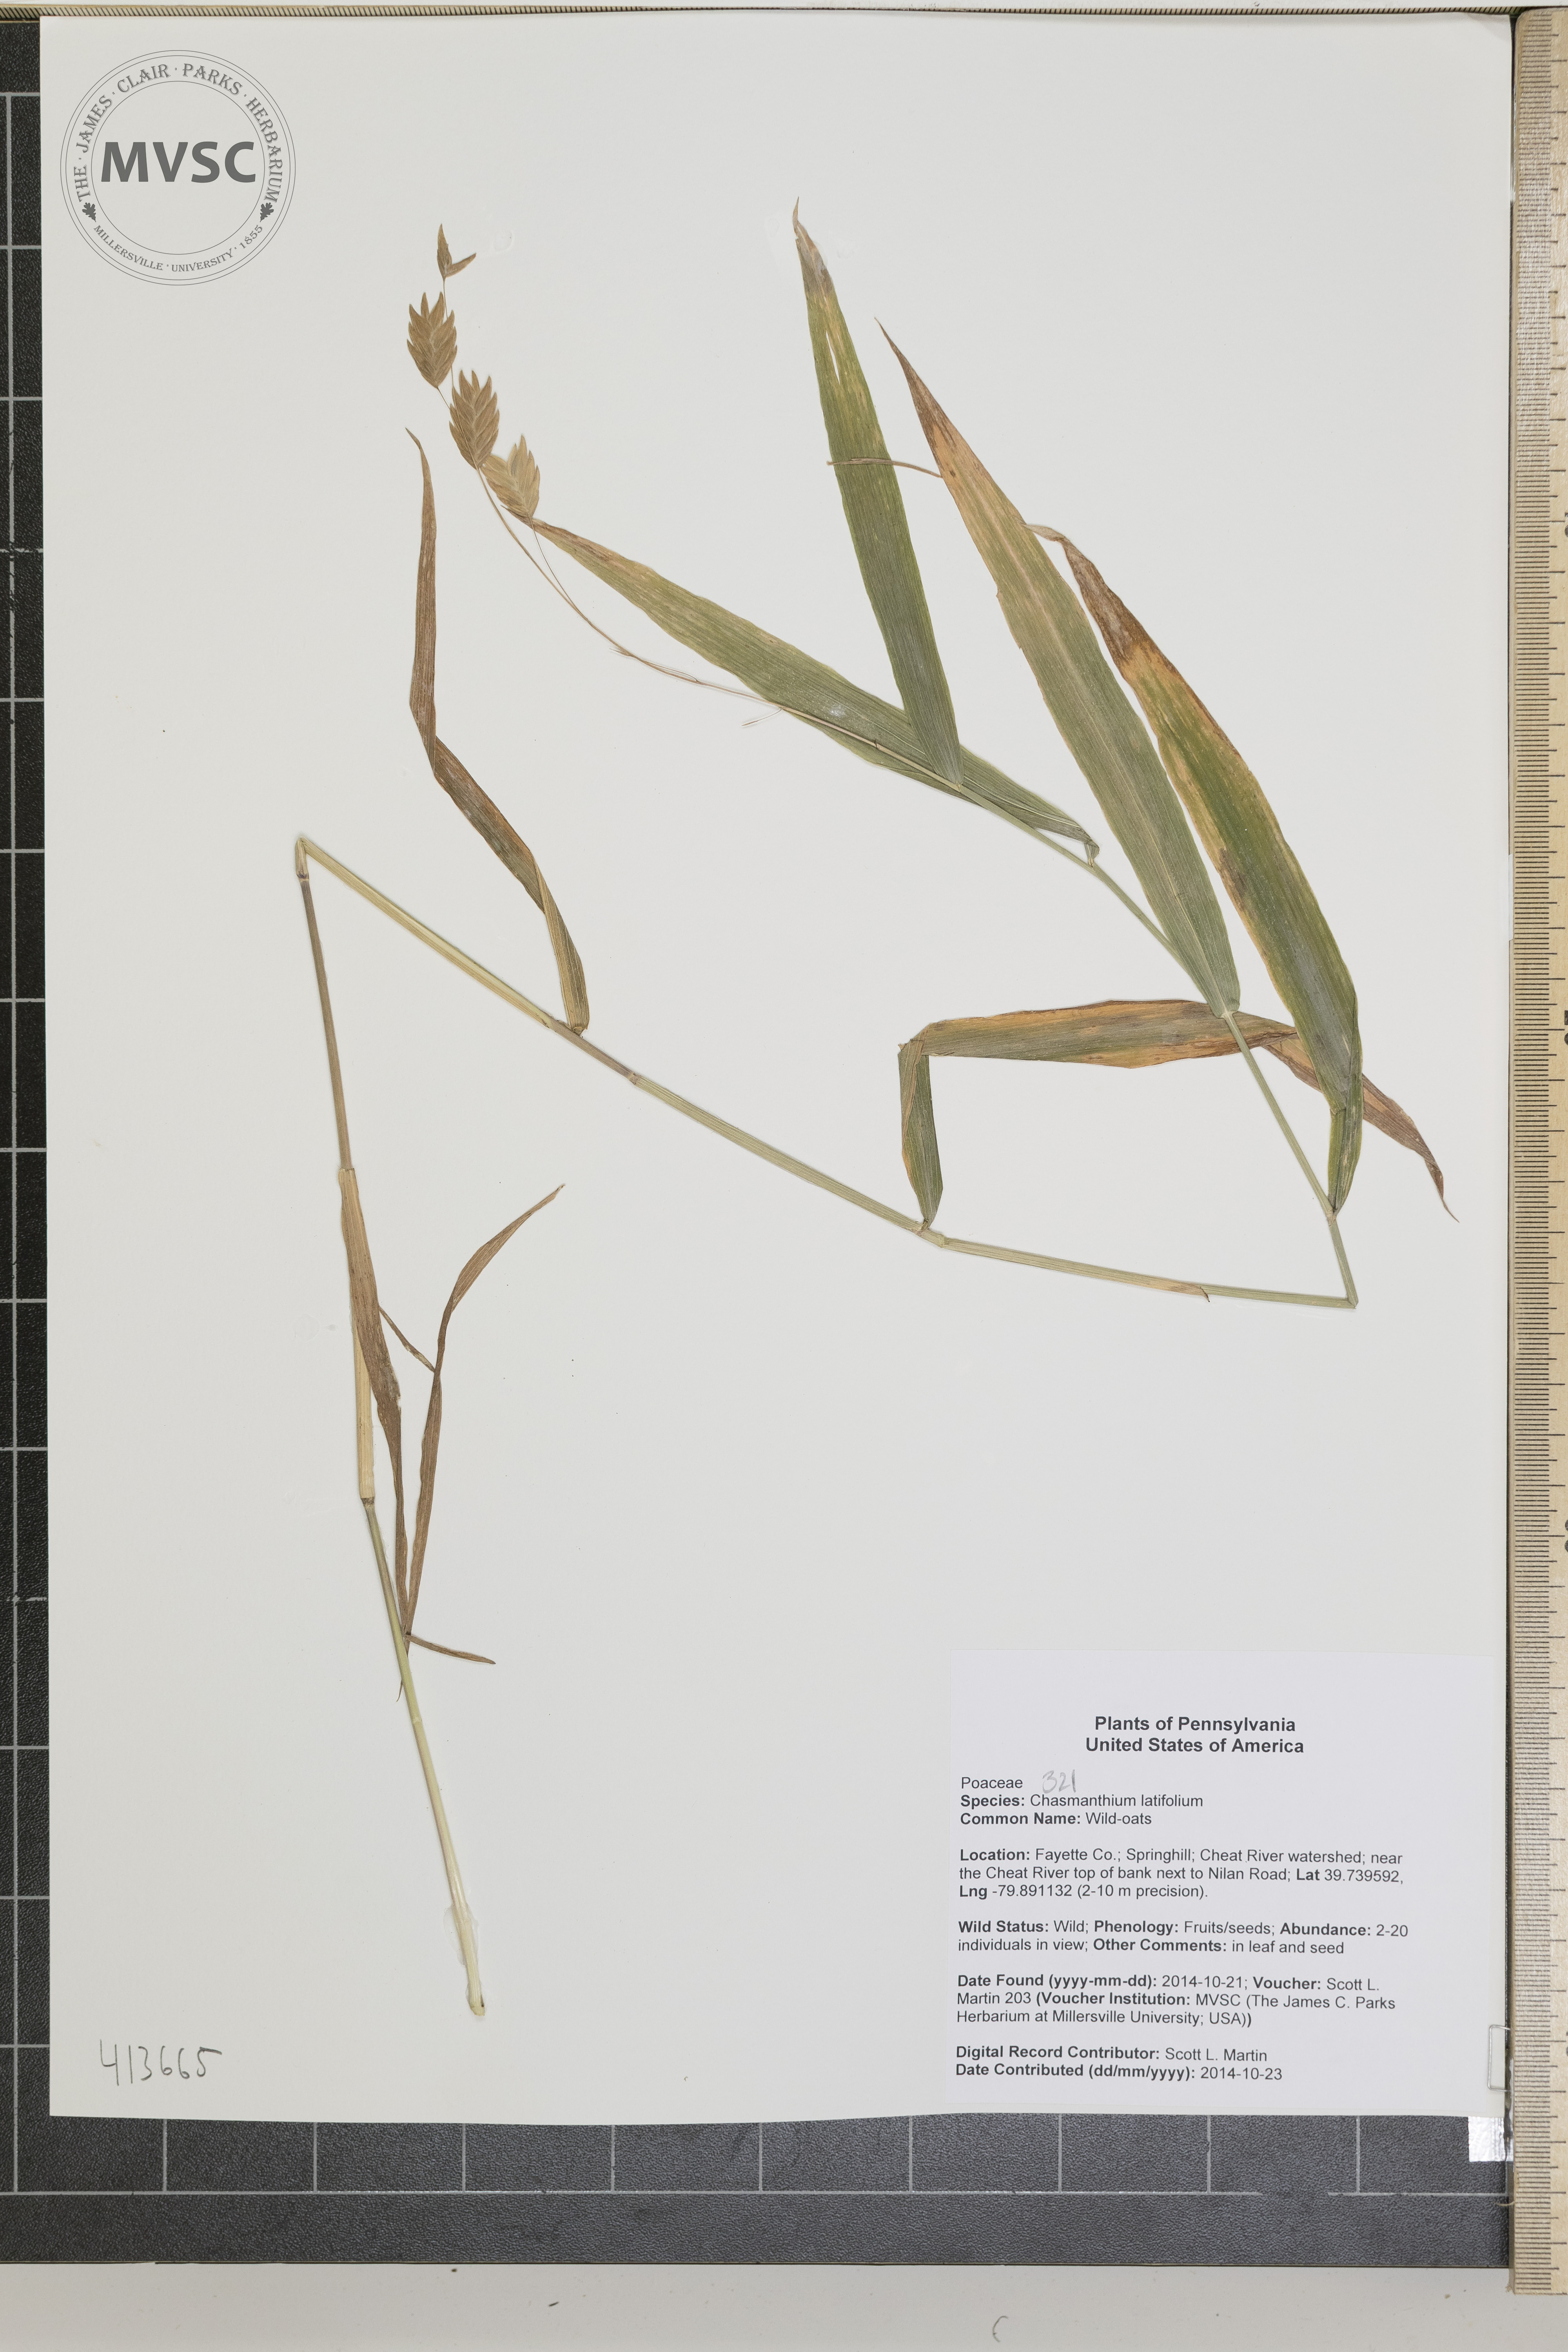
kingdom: Plantae
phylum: Tracheophyta
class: Liliopsida
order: Poales
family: Poaceae
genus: Chasmanthium
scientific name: Chasmanthium latifolium
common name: Wild-oats
